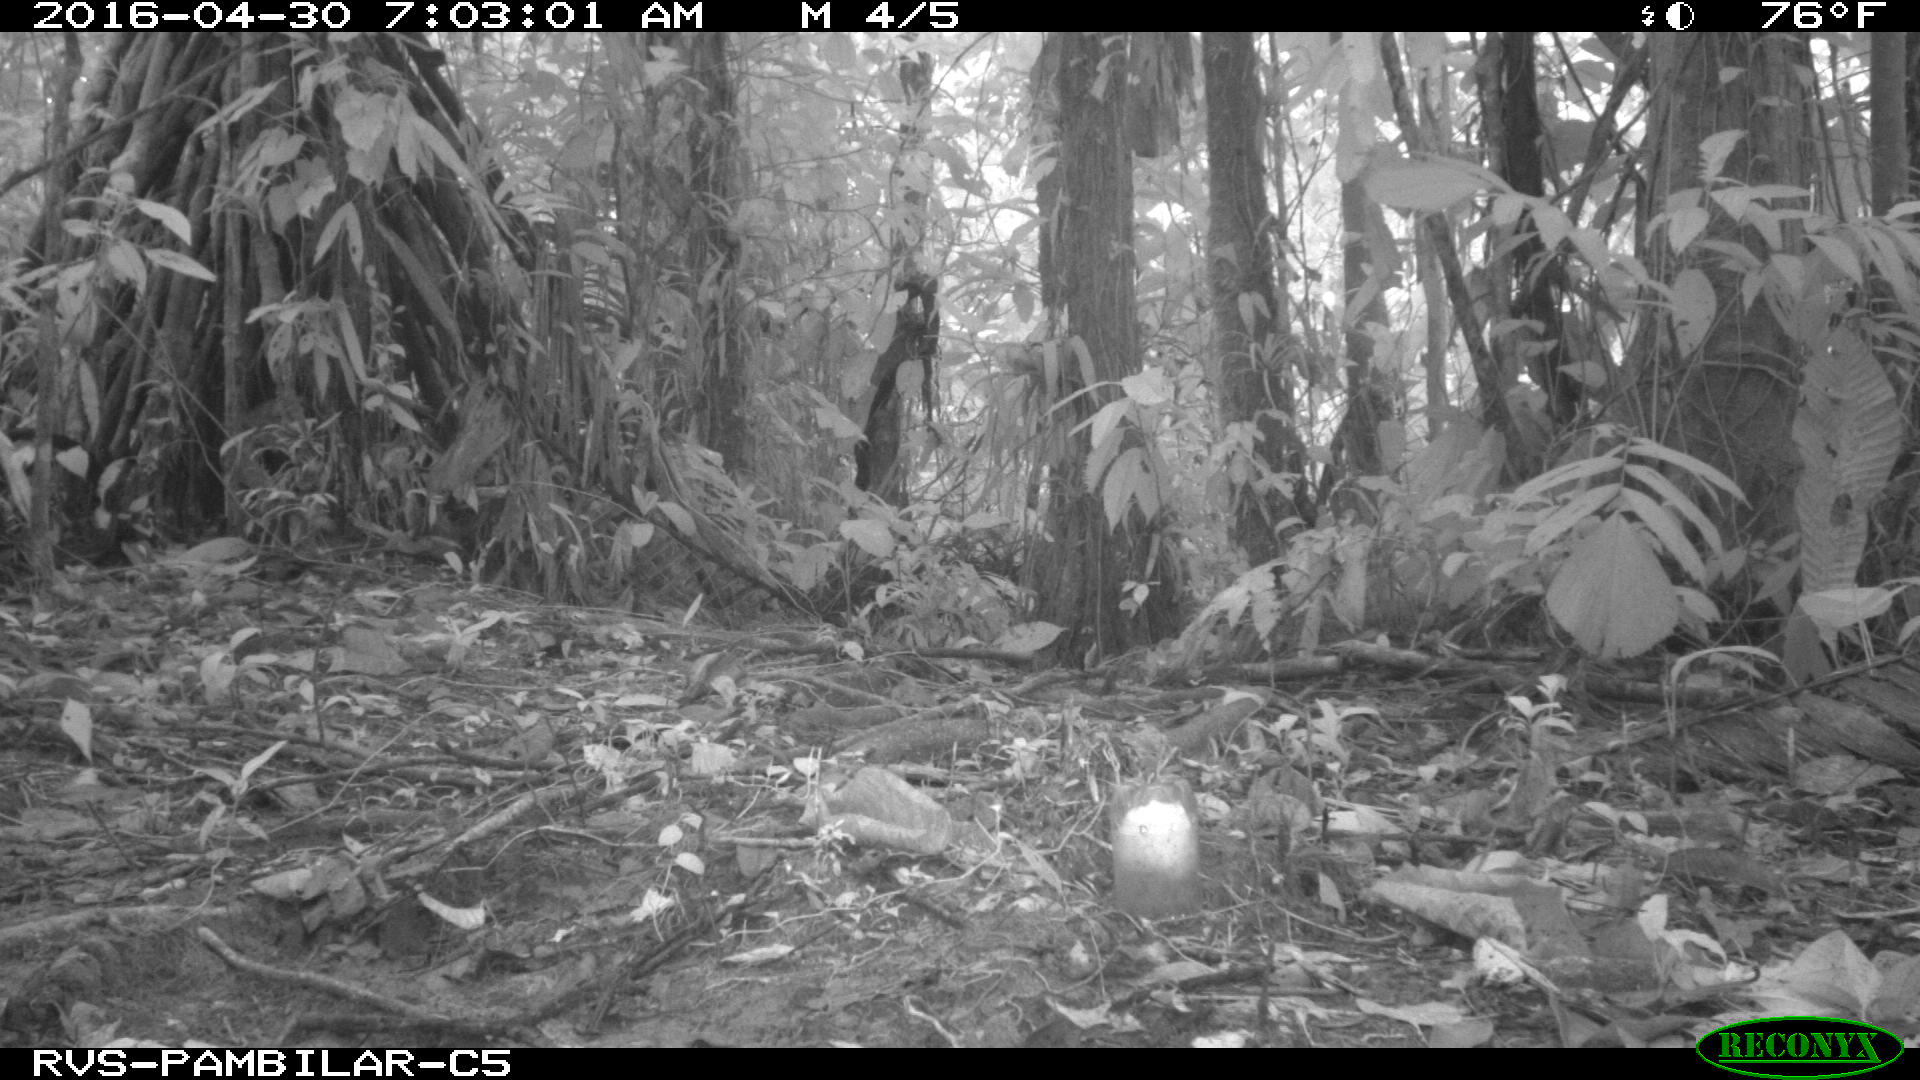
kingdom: Animalia
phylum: Chordata
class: Mammalia
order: Rodentia
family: Dasyproctidae
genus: Dasyprocta
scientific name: Dasyprocta punctata
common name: Central american agouti
